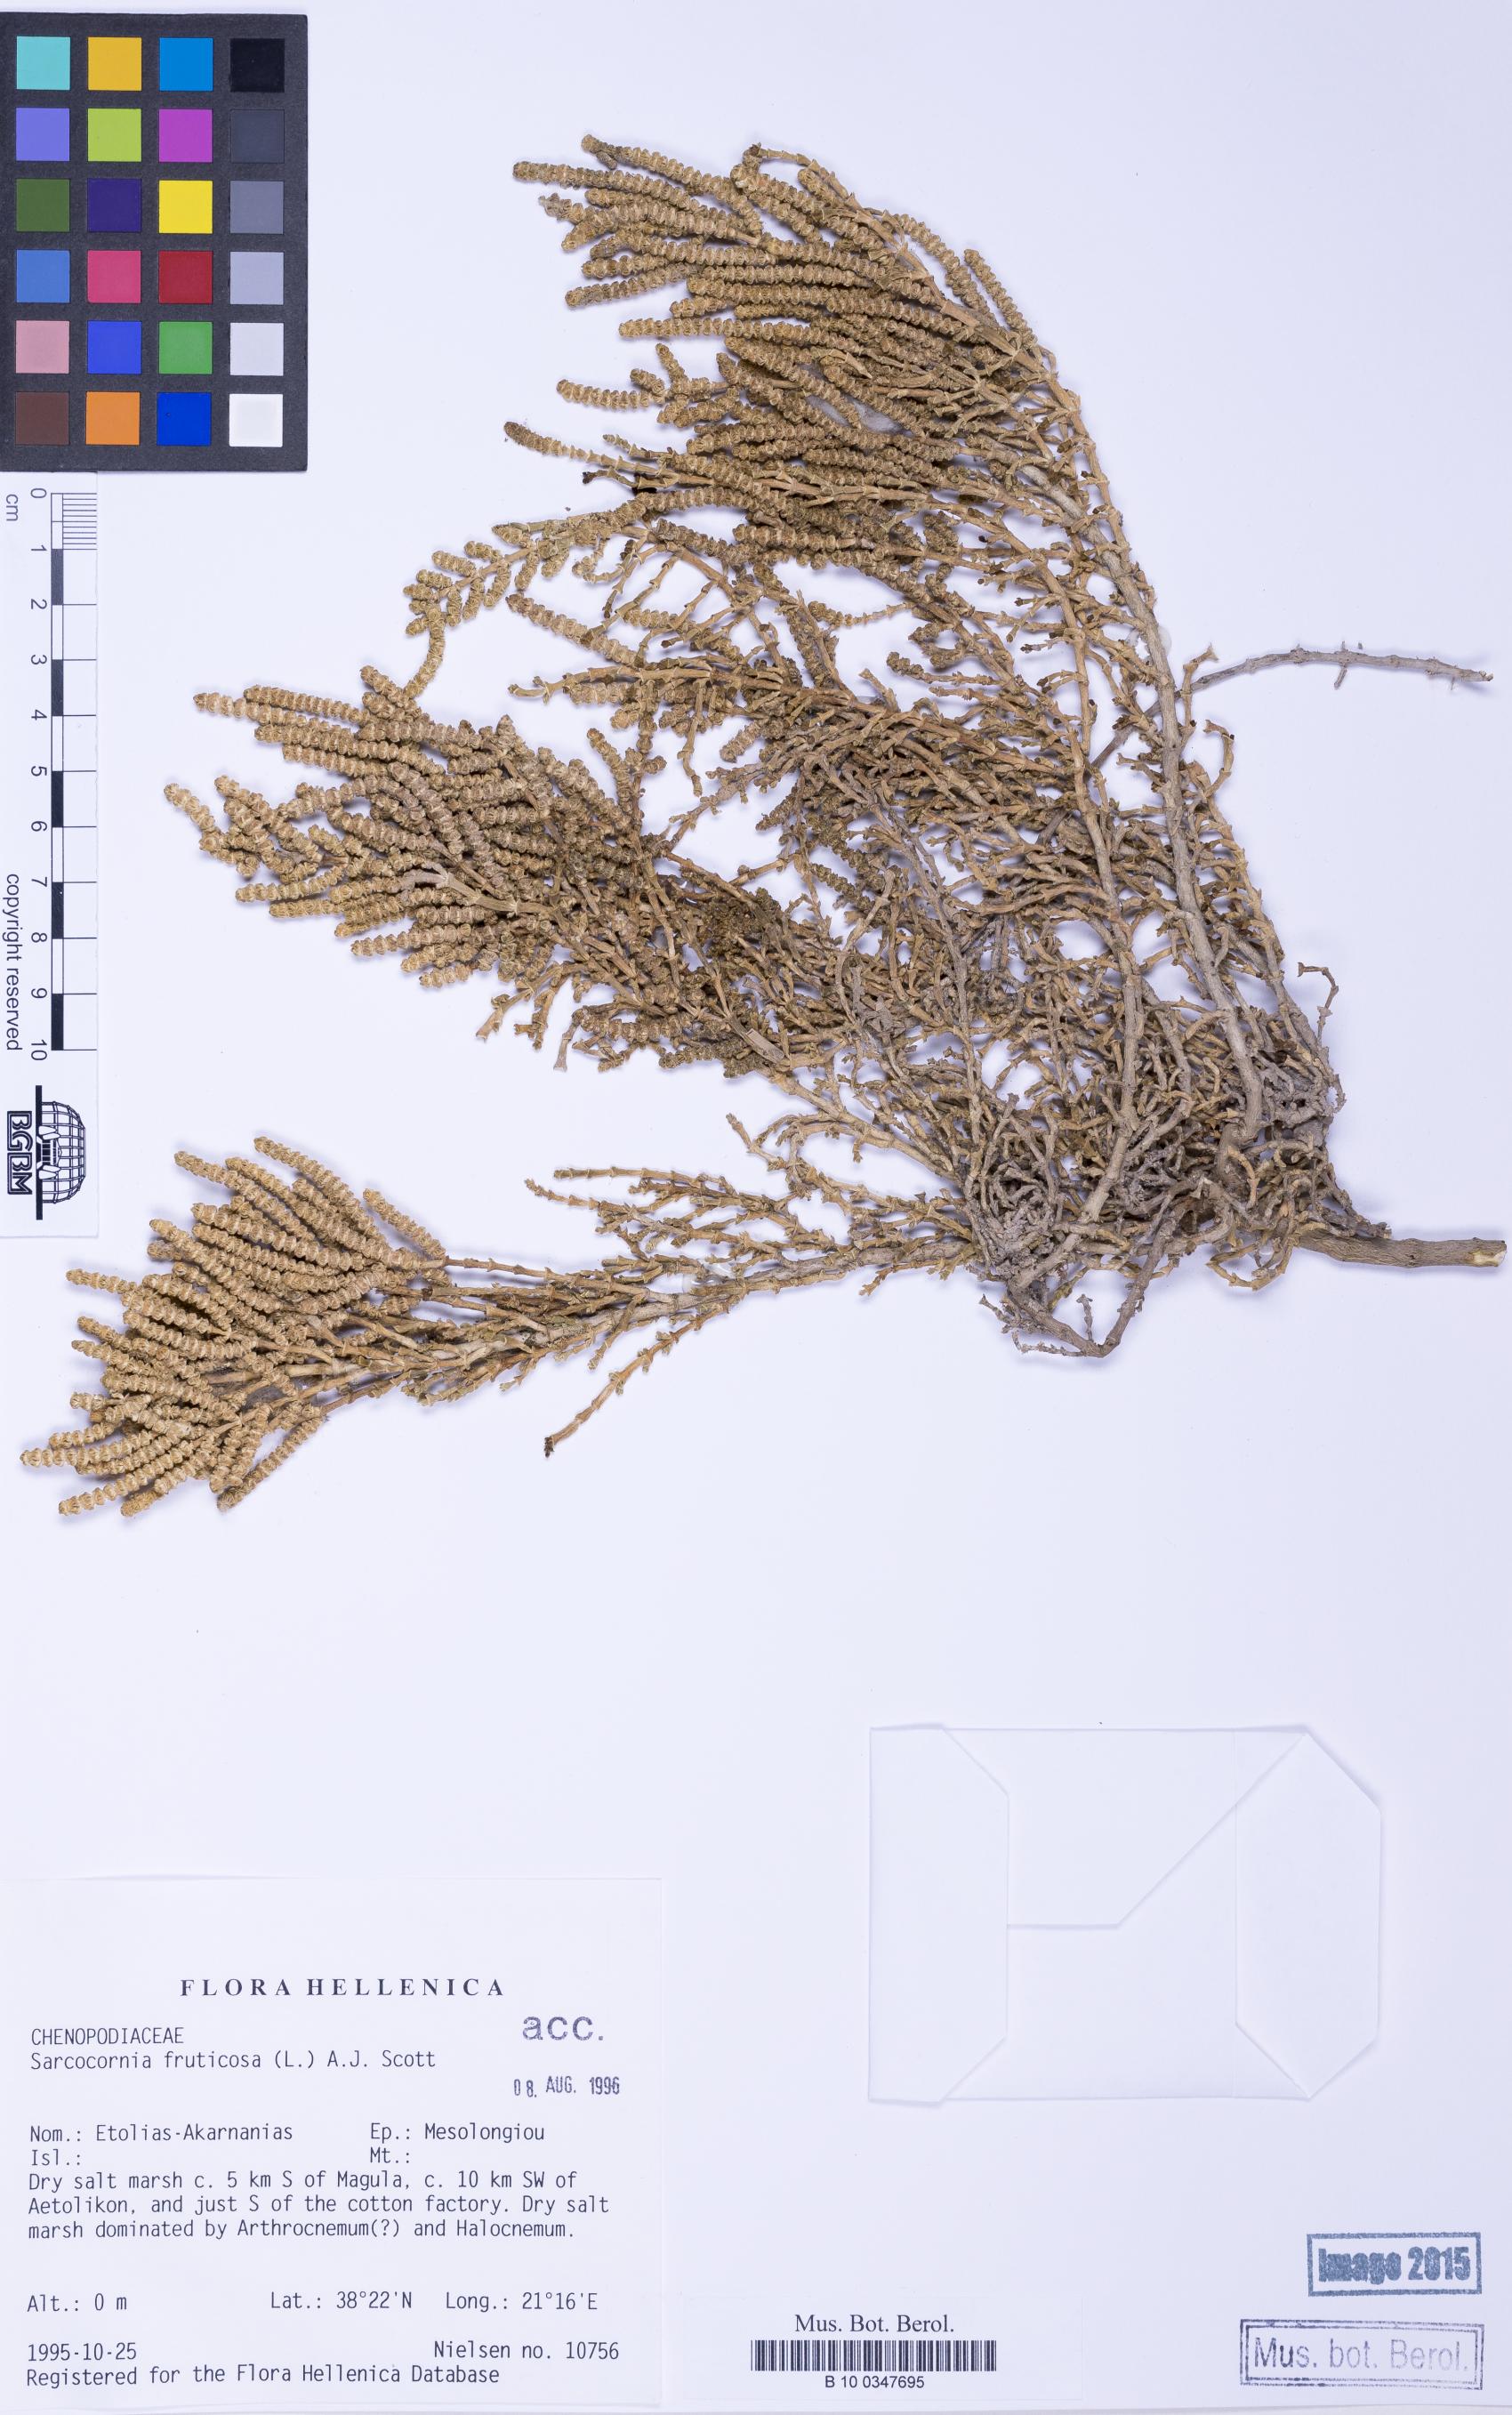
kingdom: Plantae
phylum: Tracheophyta
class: Magnoliopsida
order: Caryophyllales
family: Amaranthaceae
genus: Salicornia
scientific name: Salicornia perennis
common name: Chicken claws
